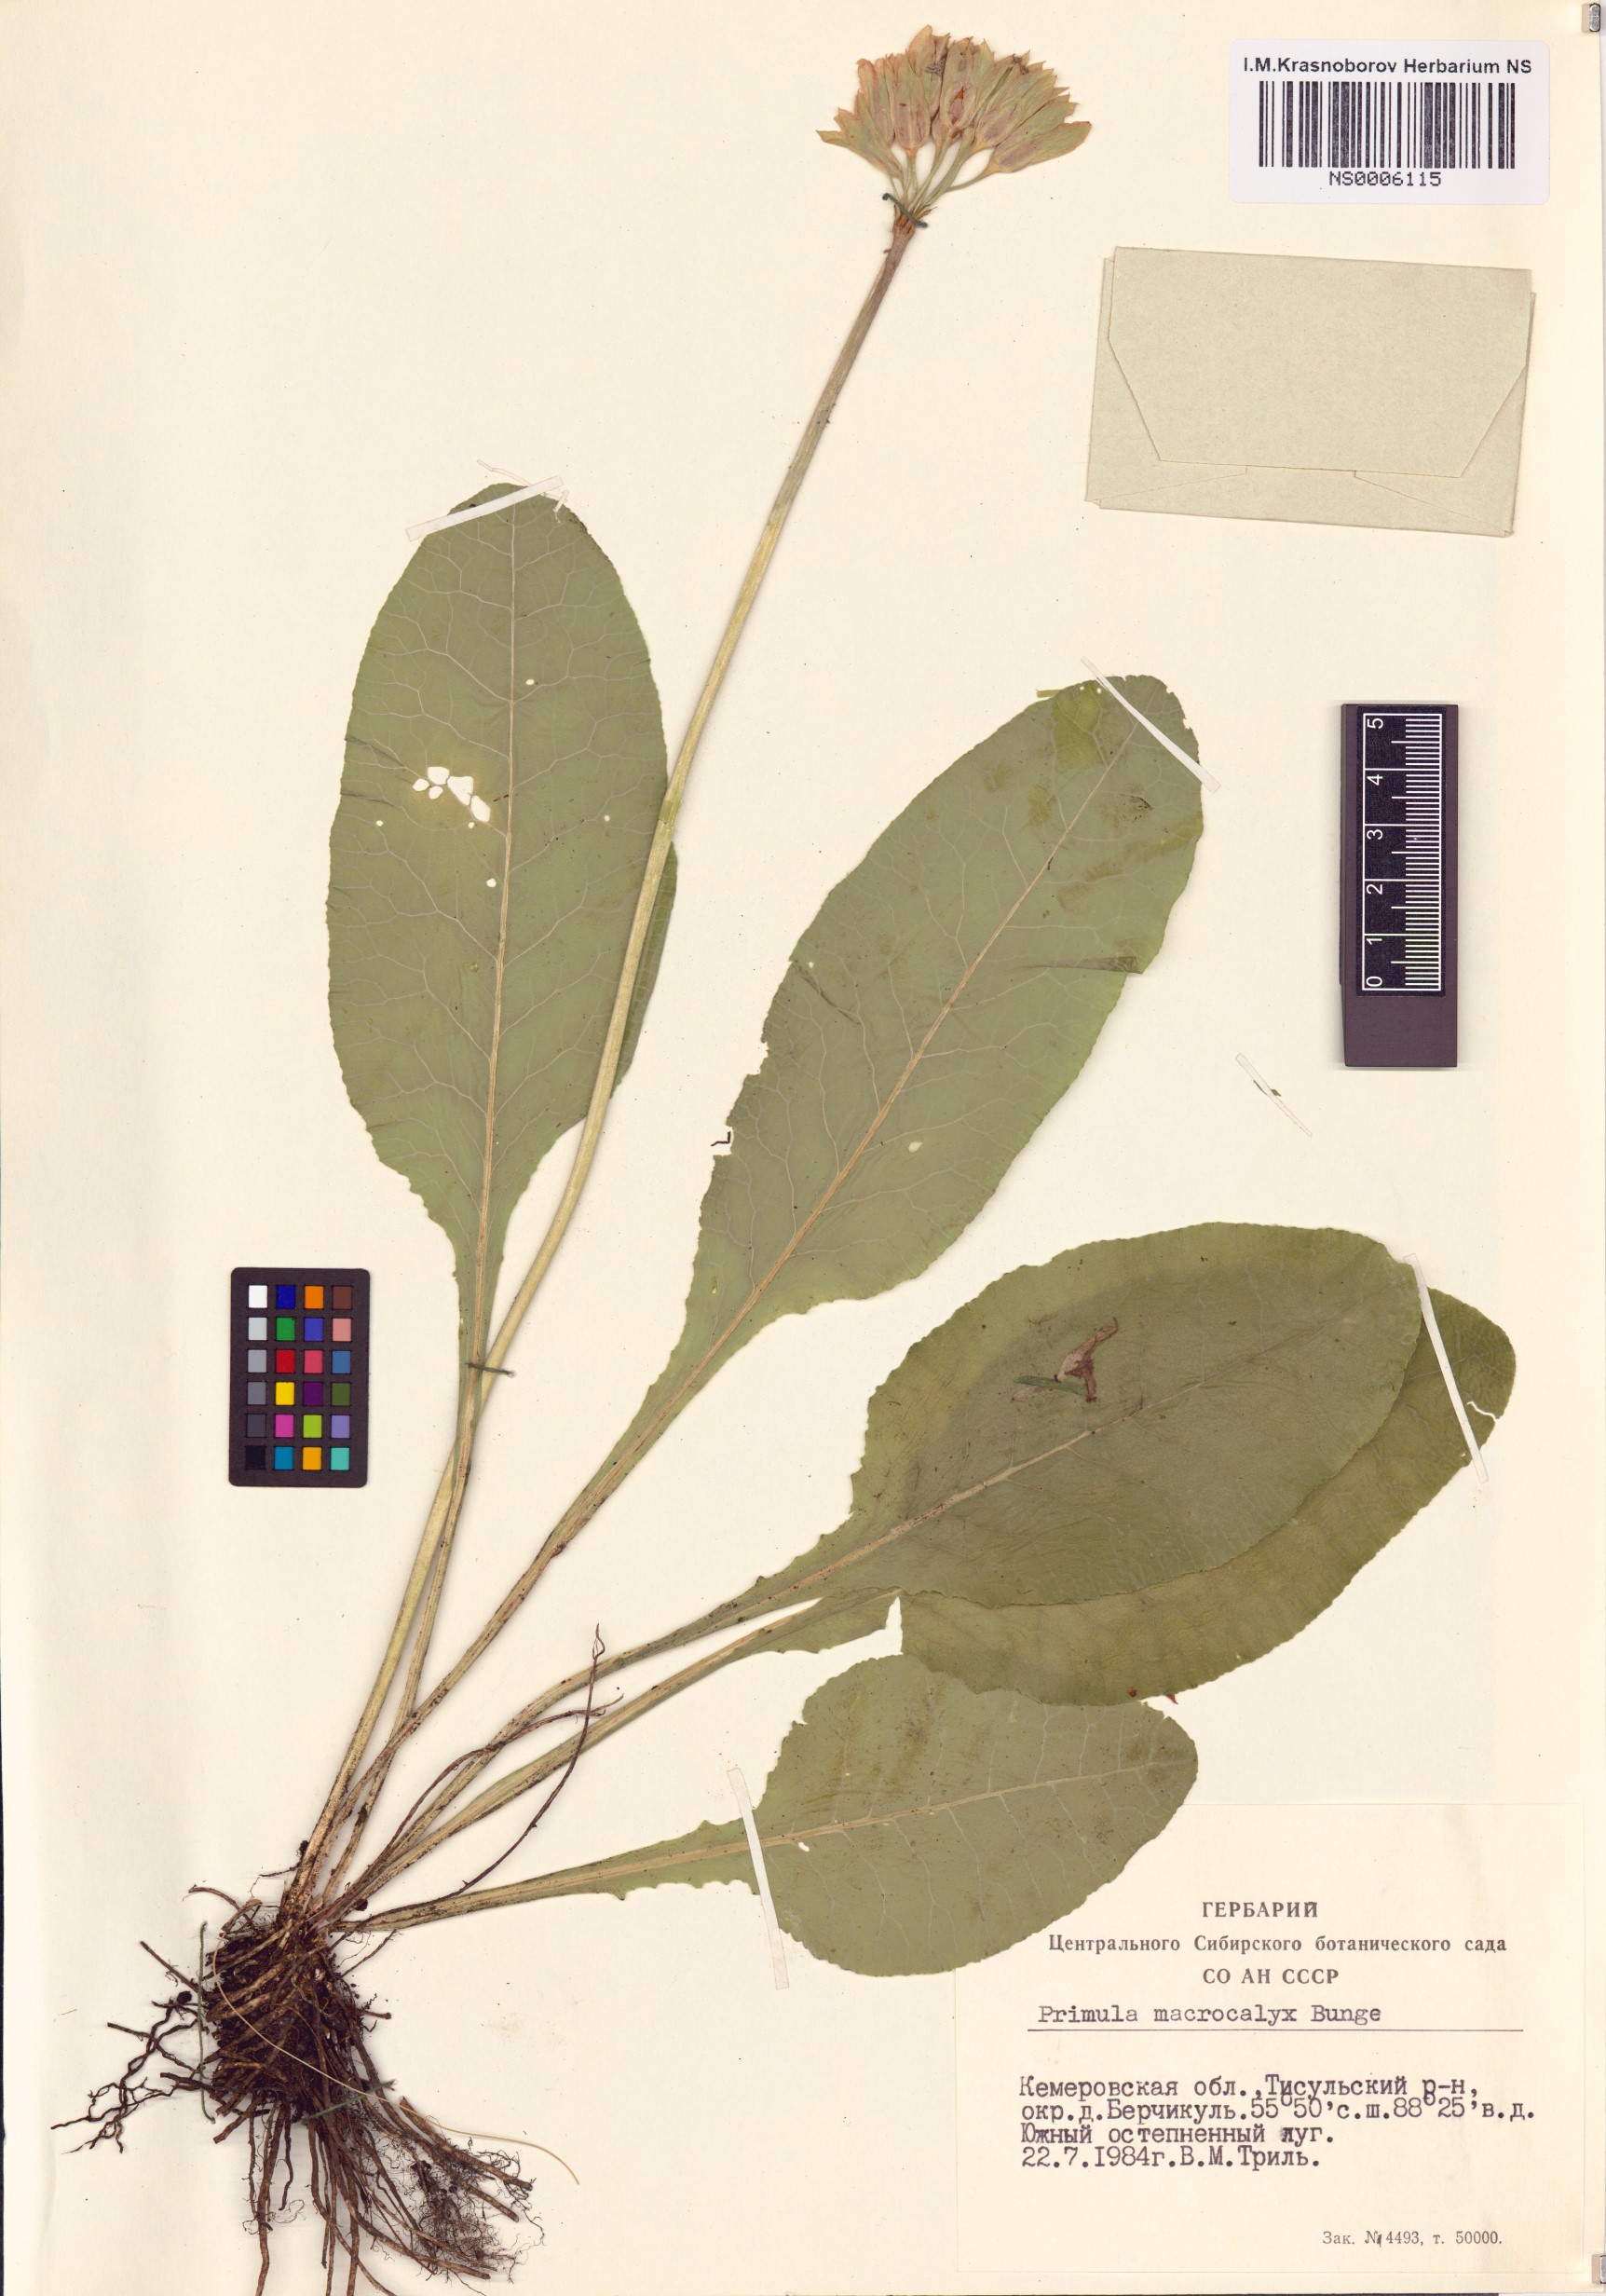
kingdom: Plantae
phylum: Tracheophyta
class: Magnoliopsida
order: Ericales
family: Primulaceae
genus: Primula
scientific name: Primula veris
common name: Cowslip
